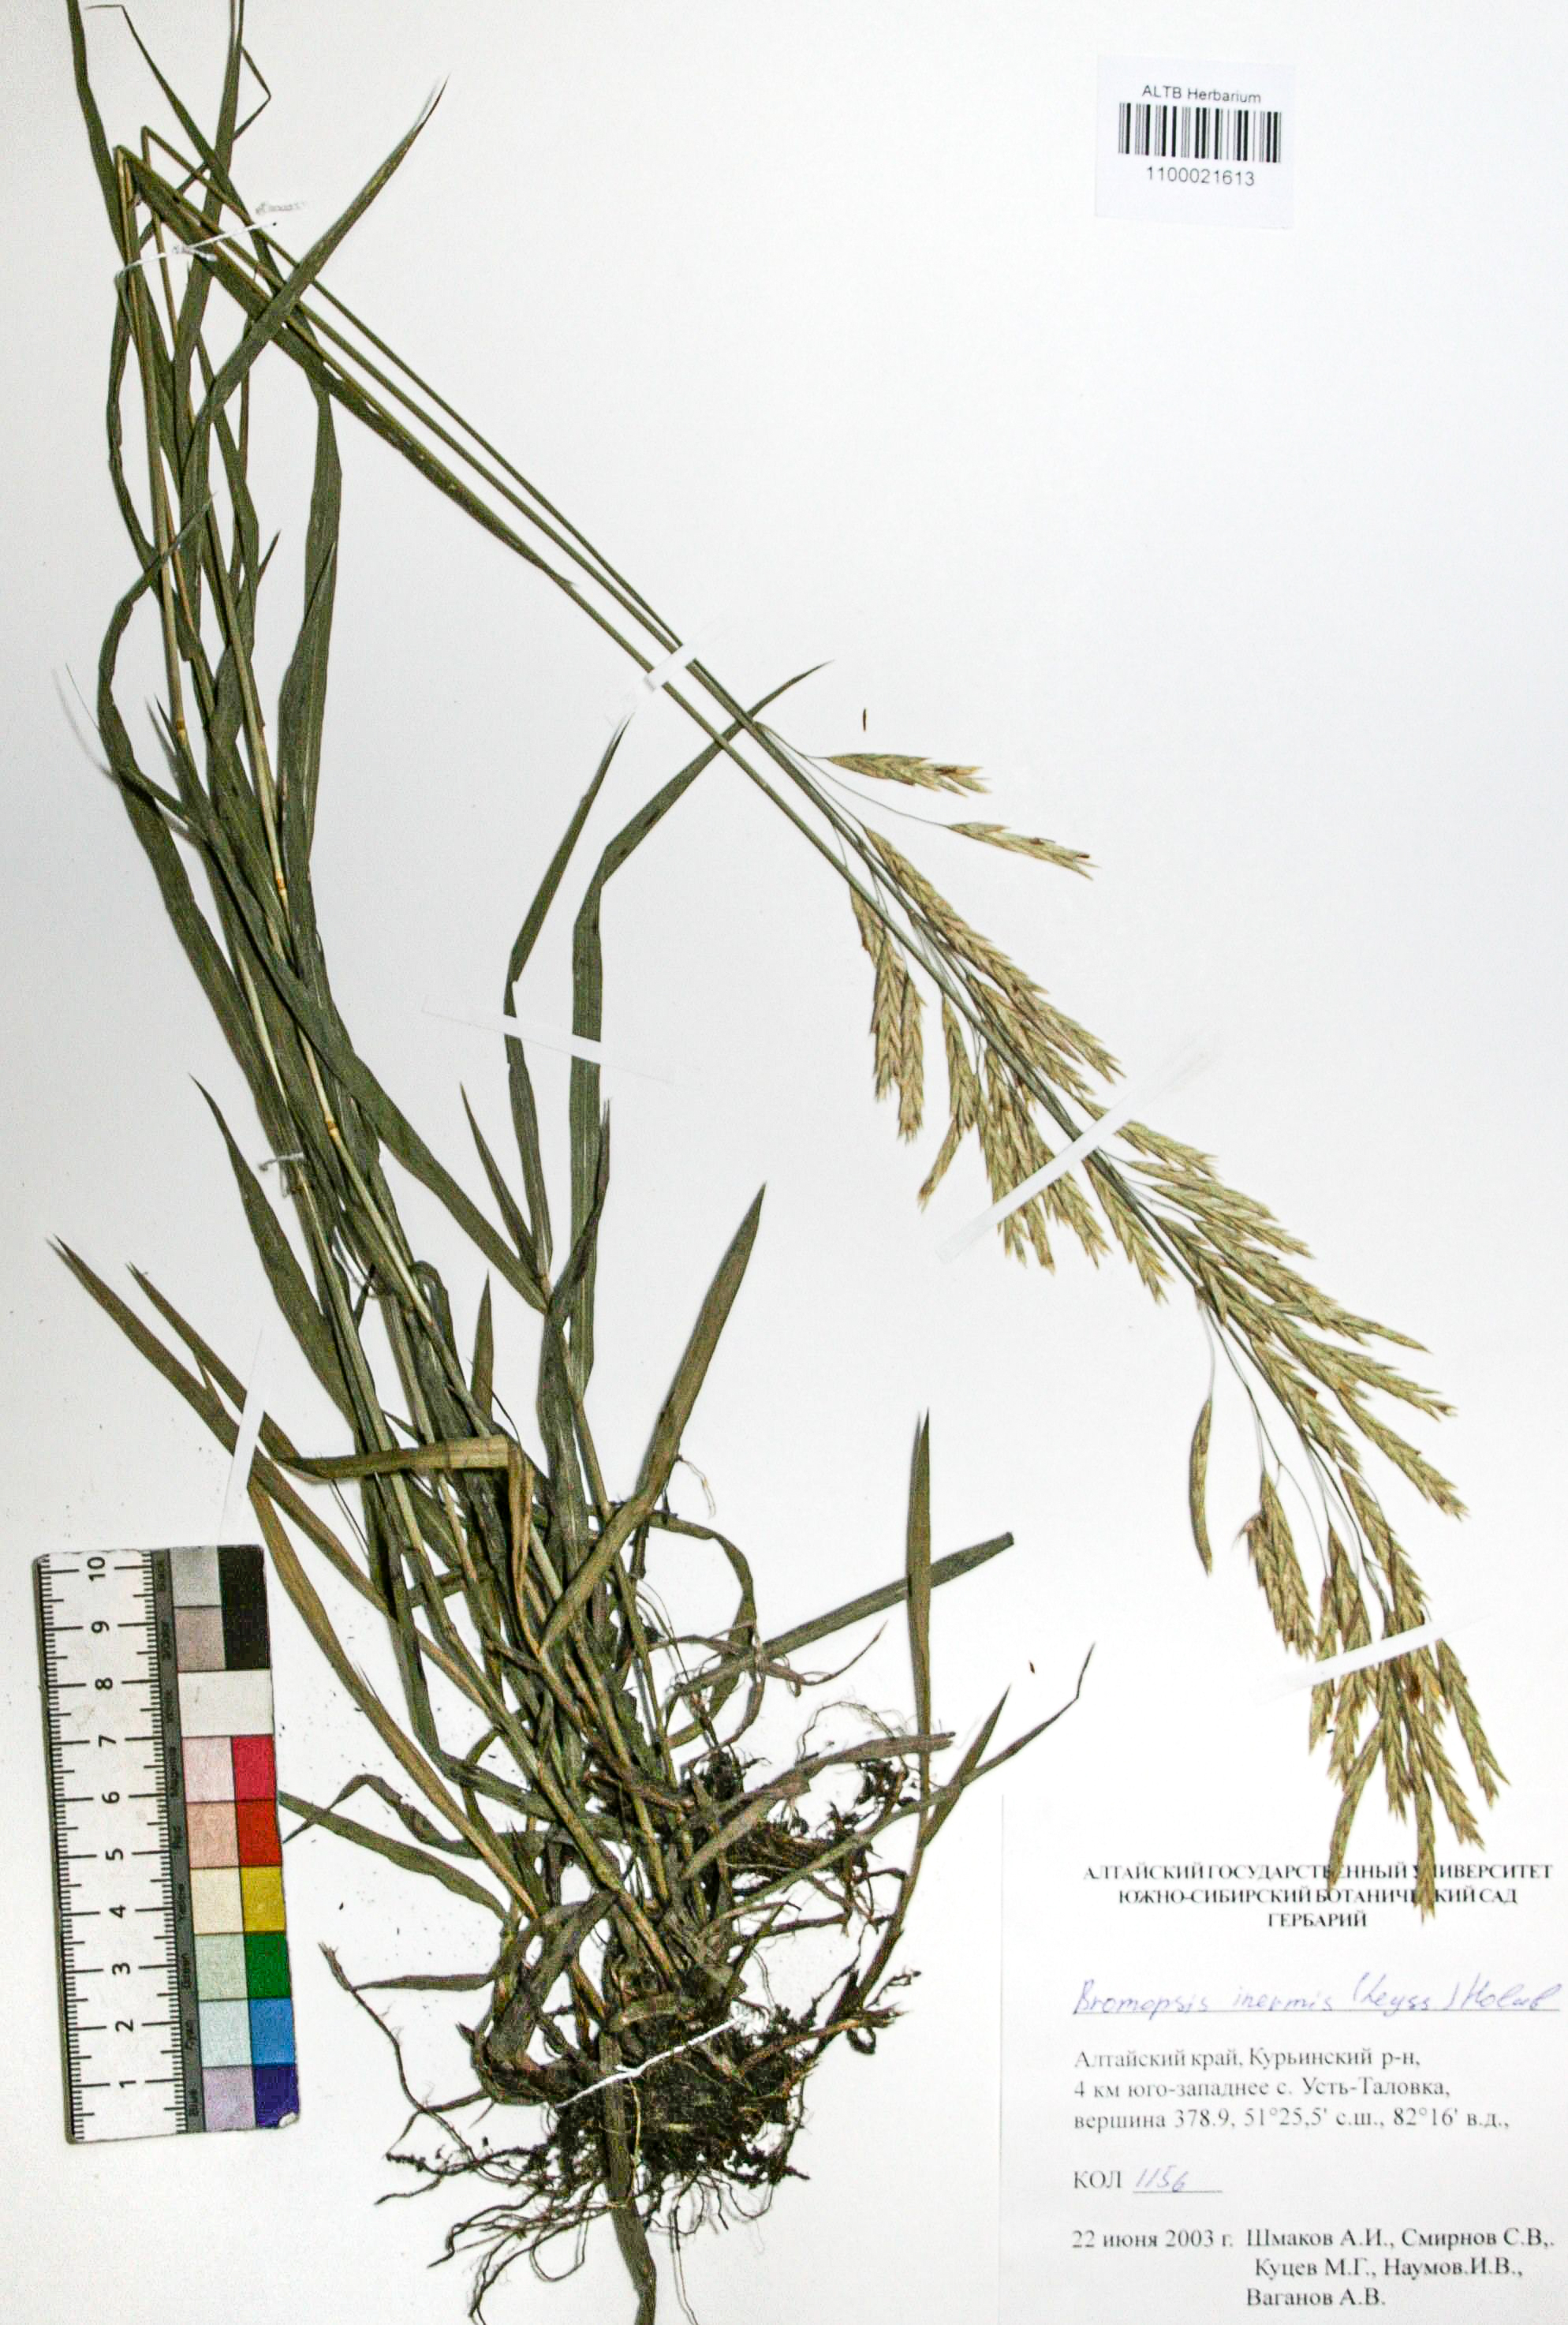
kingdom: Plantae
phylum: Tracheophyta
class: Liliopsida
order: Poales
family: Poaceae
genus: Bromus
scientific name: Bromus inermis
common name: Smooth brome
